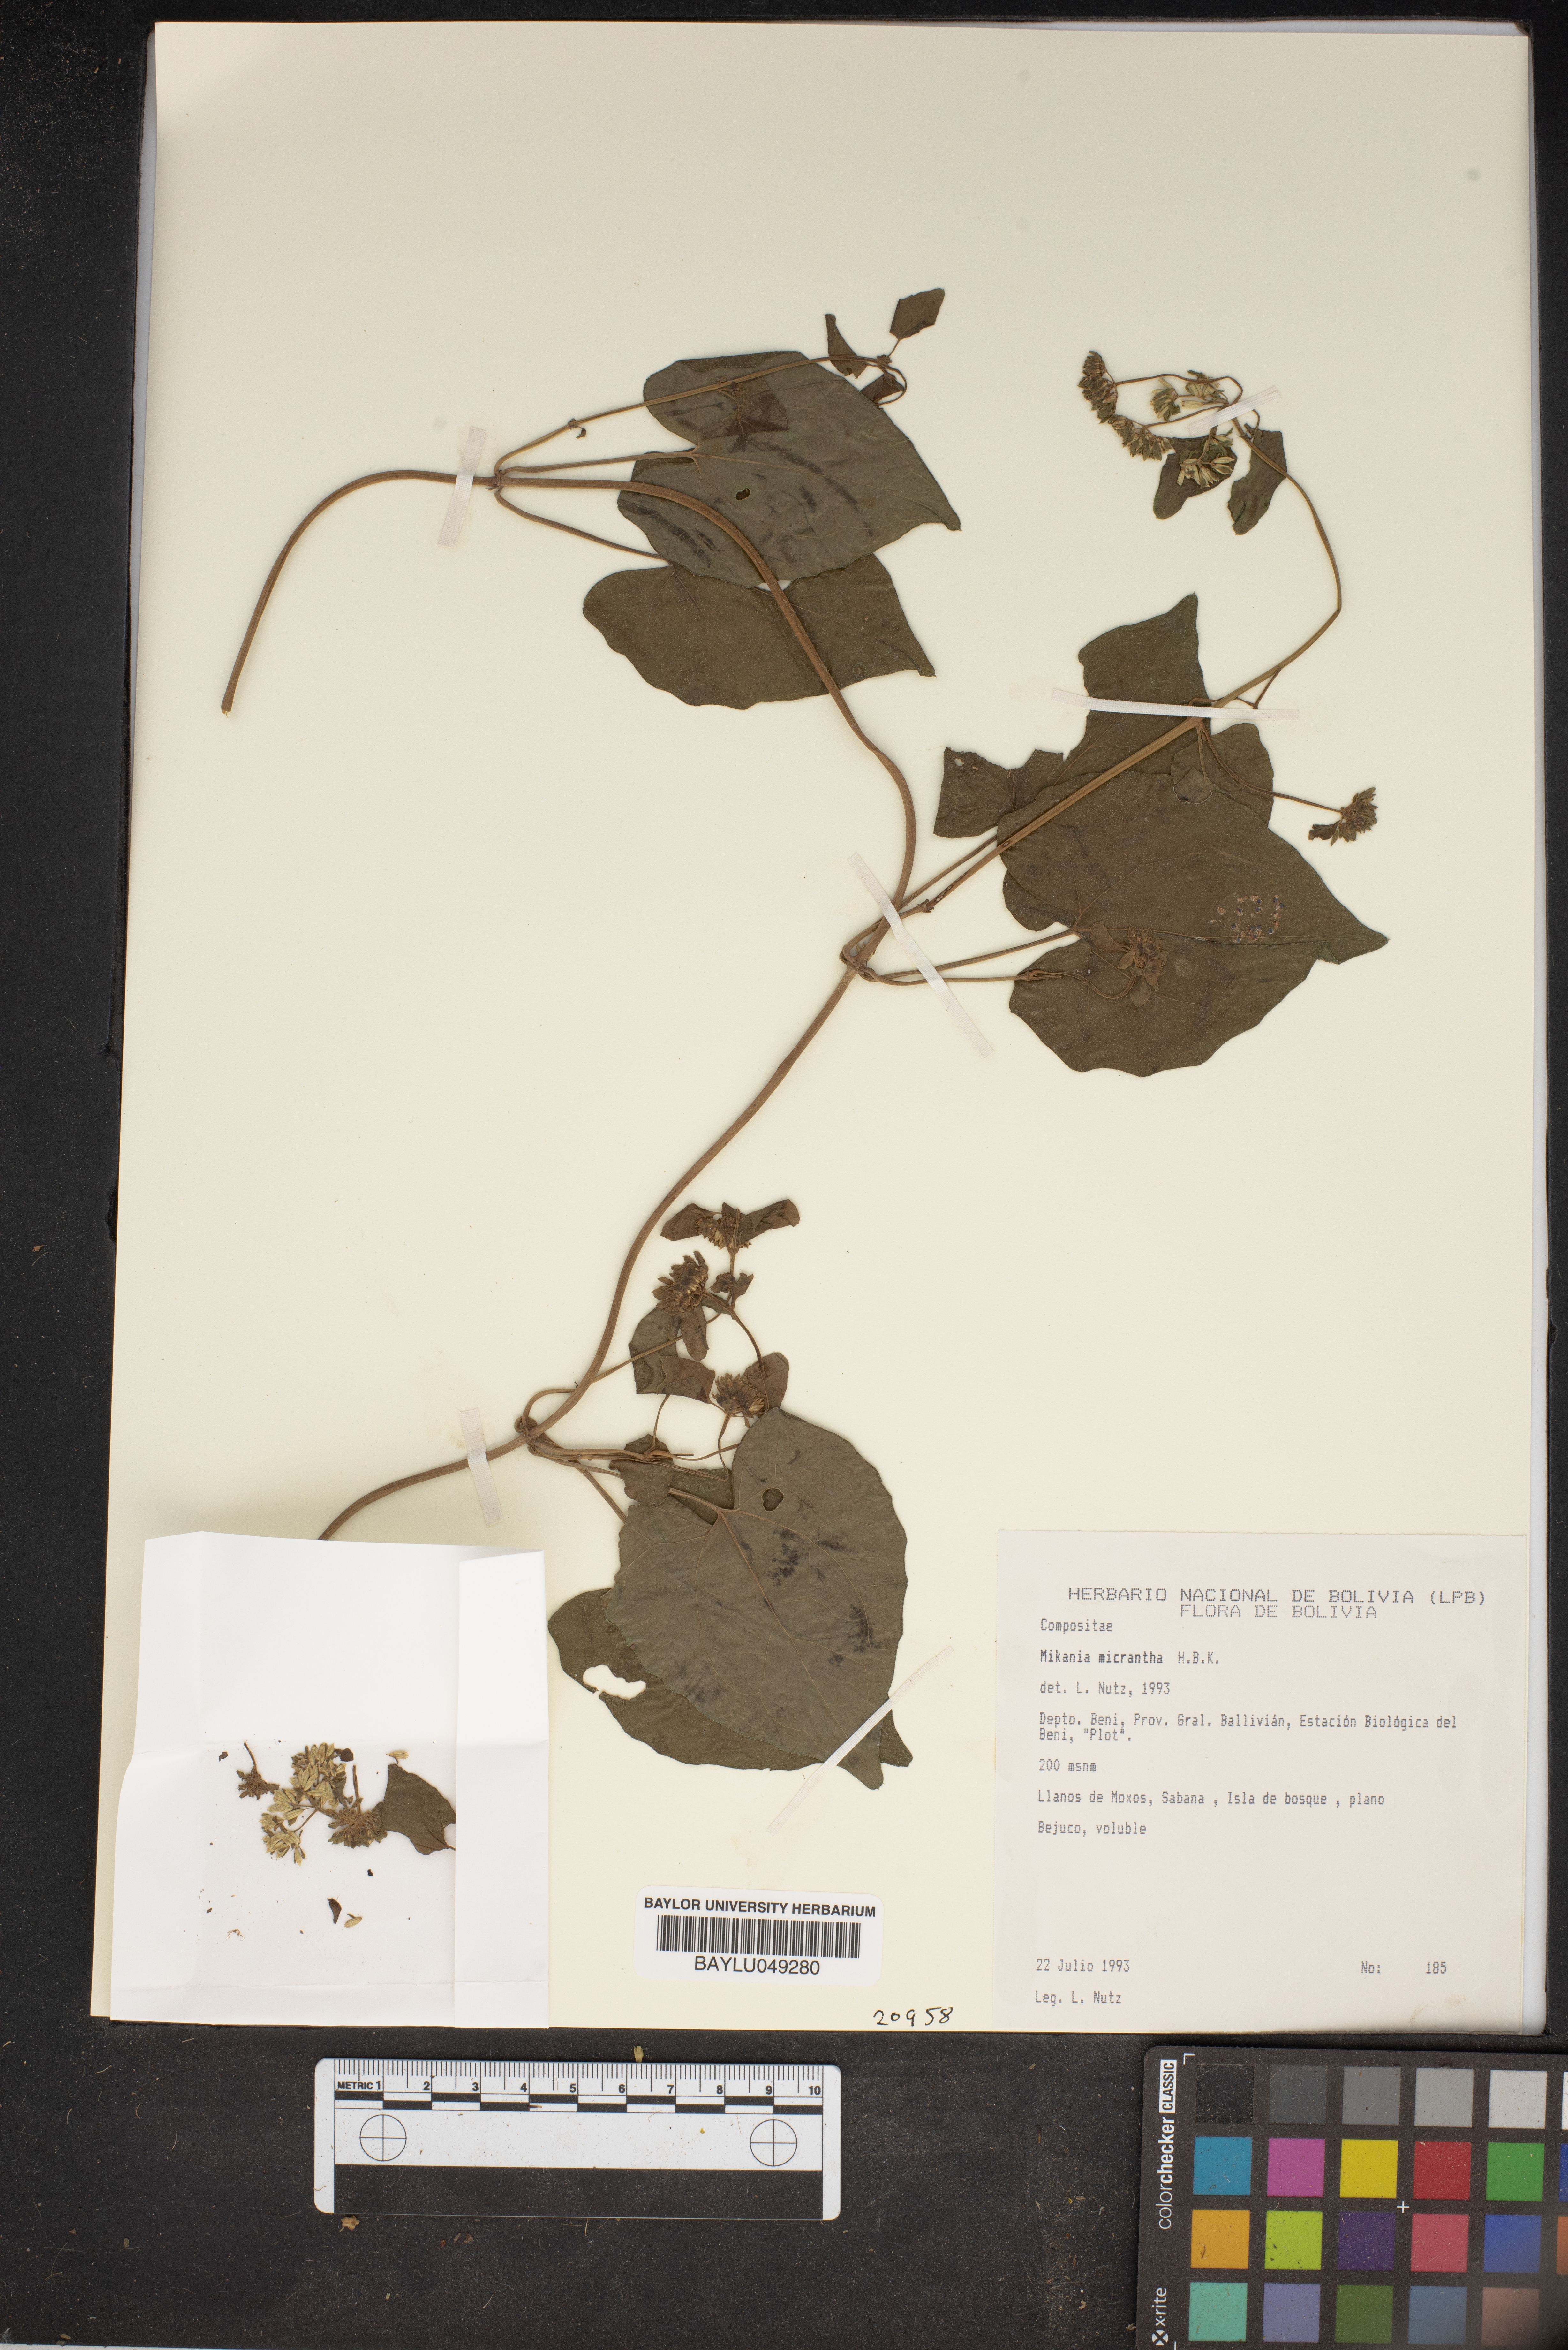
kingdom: Plantae
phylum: Tracheophyta
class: Magnoliopsida
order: Asterales
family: Asteraceae
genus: Mikania
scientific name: Mikania micrantha
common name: Mile-a-minute
